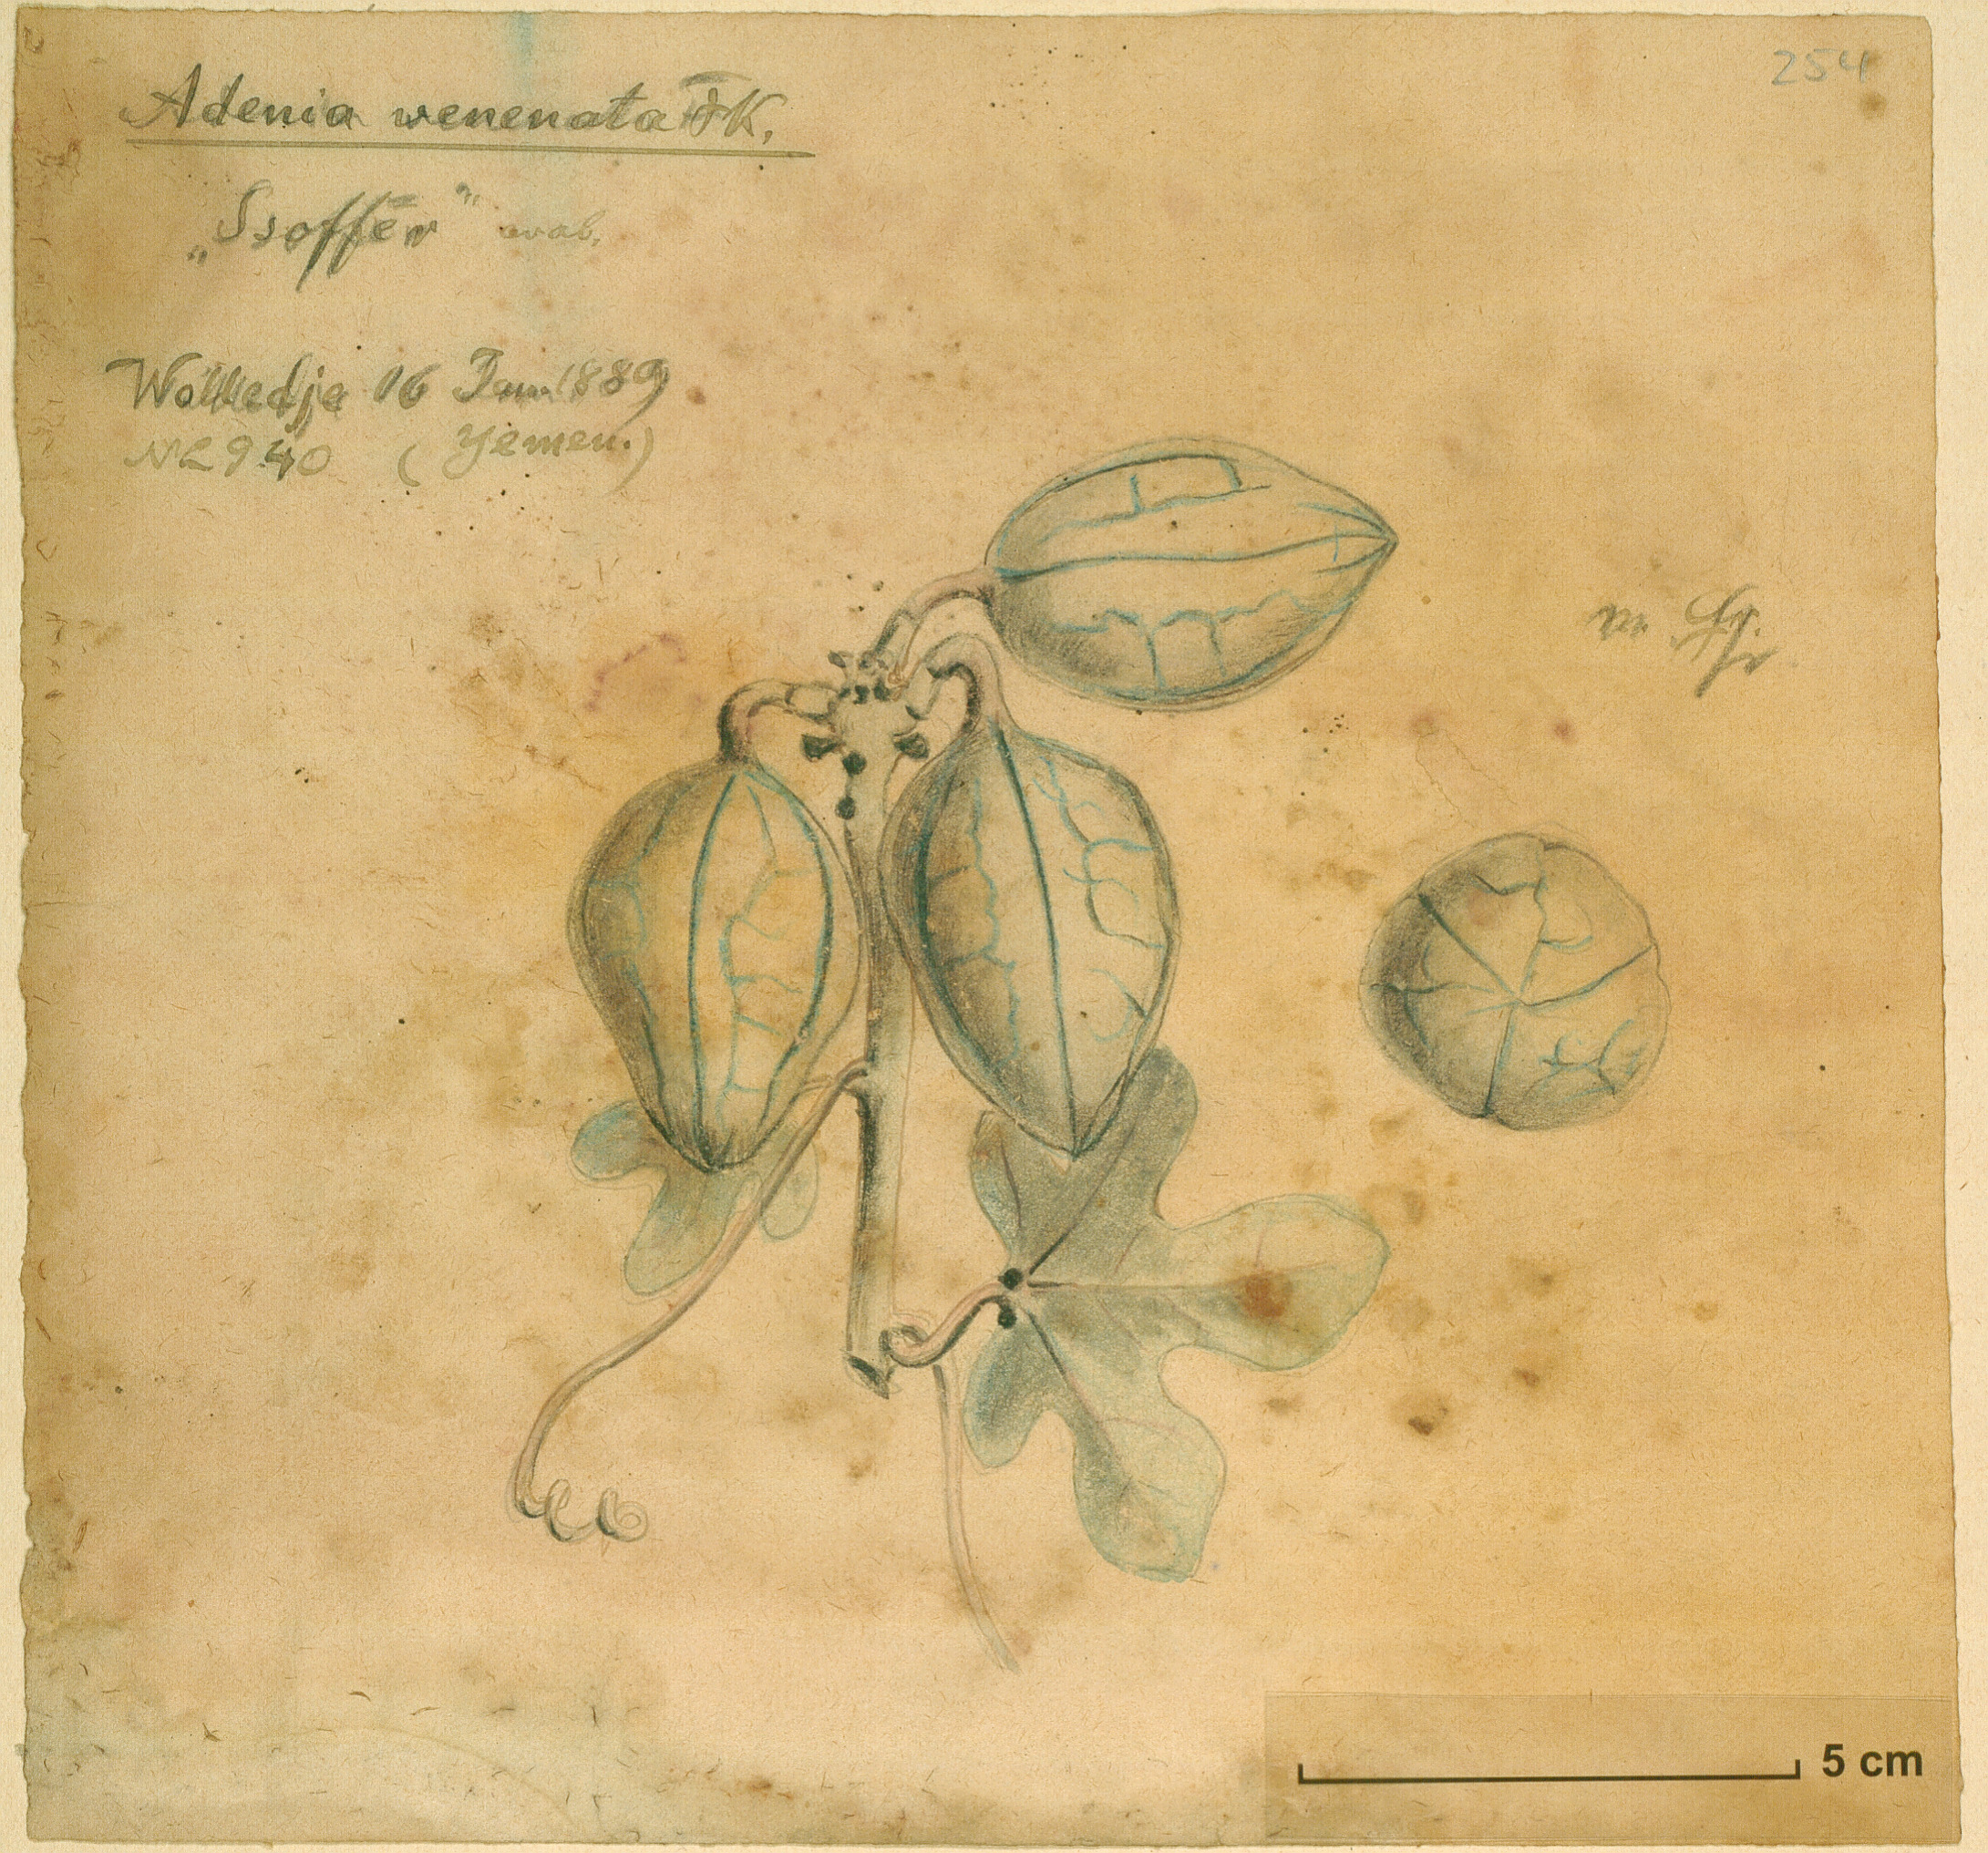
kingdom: Plantae
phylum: Tracheophyta
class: Magnoliopsida
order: Malpighiales
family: Passifloraceae
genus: Adenia
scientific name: Adenia venenata
